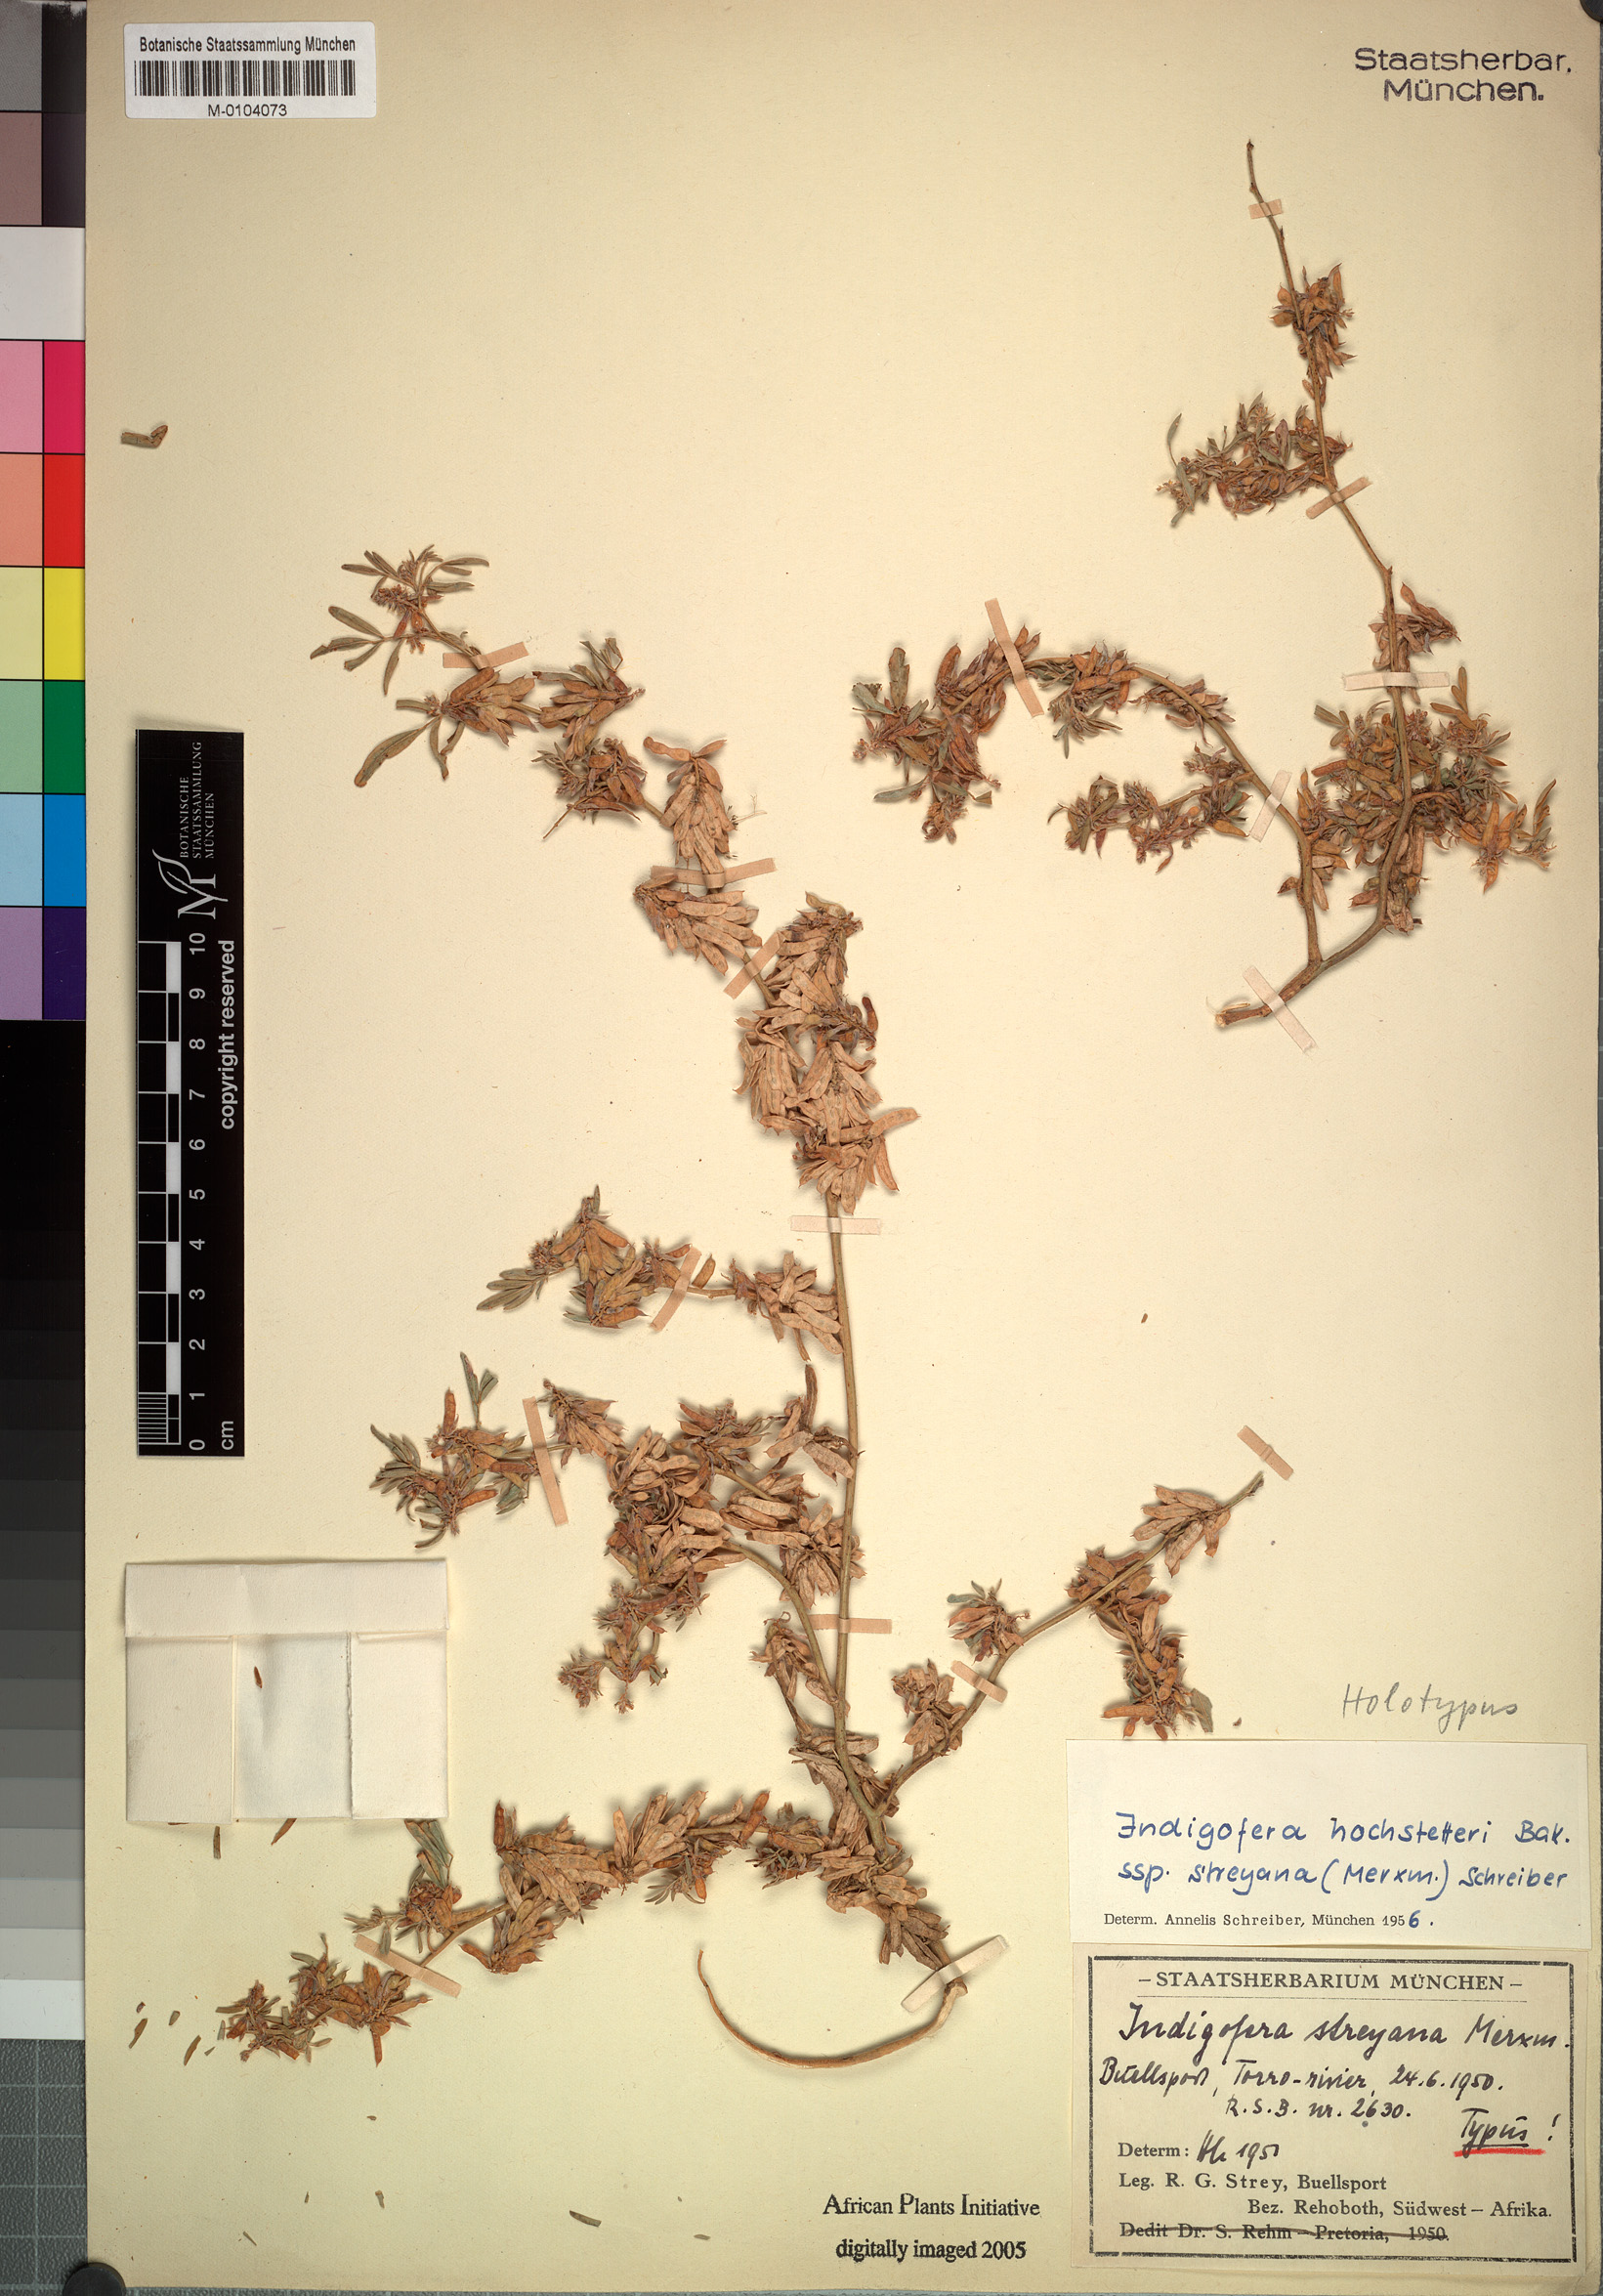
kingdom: Plantae
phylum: Tracheophyta
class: Magnoliopsida
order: Fabales
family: Fabaceae
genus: Indigofera
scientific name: Indigofera streyana
